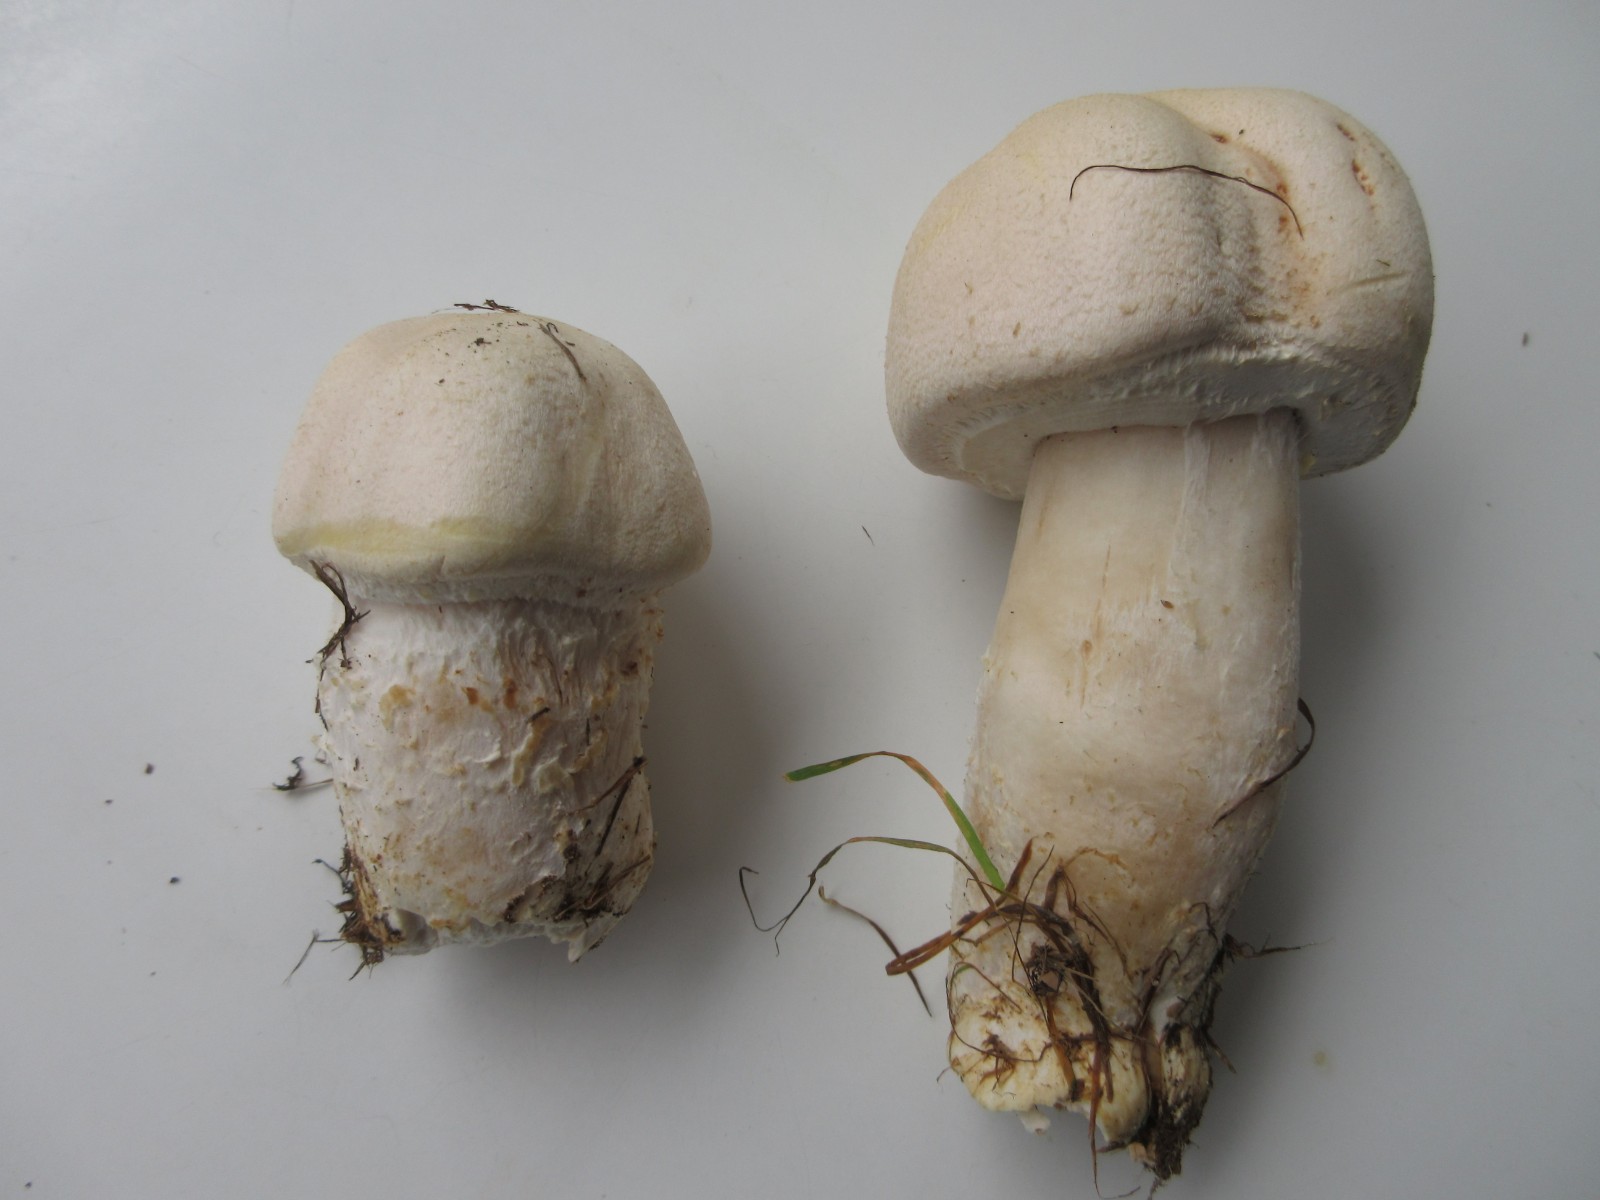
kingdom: Fungi
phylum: Basidiomycota
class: Agaricomycetes
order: Agaricales
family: Agaricaceae
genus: Agaricus
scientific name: Agaricus
